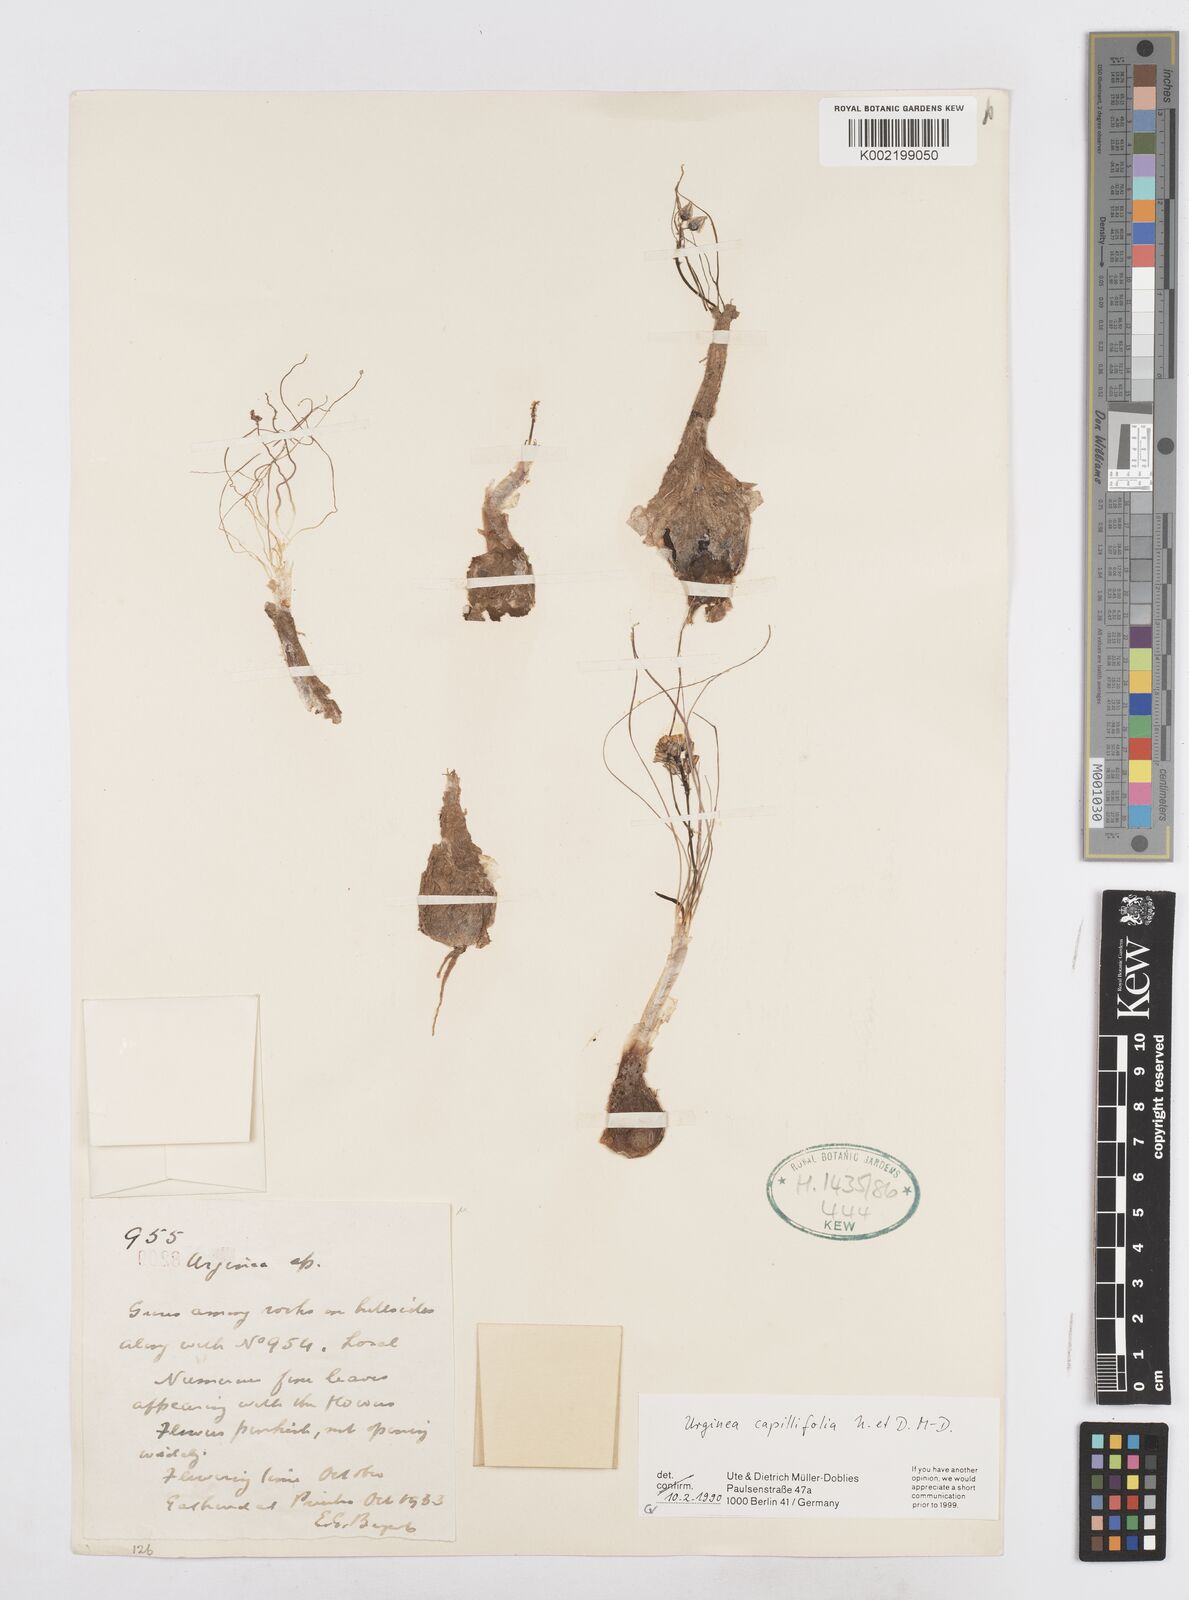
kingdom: Plantae
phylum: Tracheophyta
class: Liliopsida
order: Asparagales
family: Asparagaceae
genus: Drimia
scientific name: Drimia
